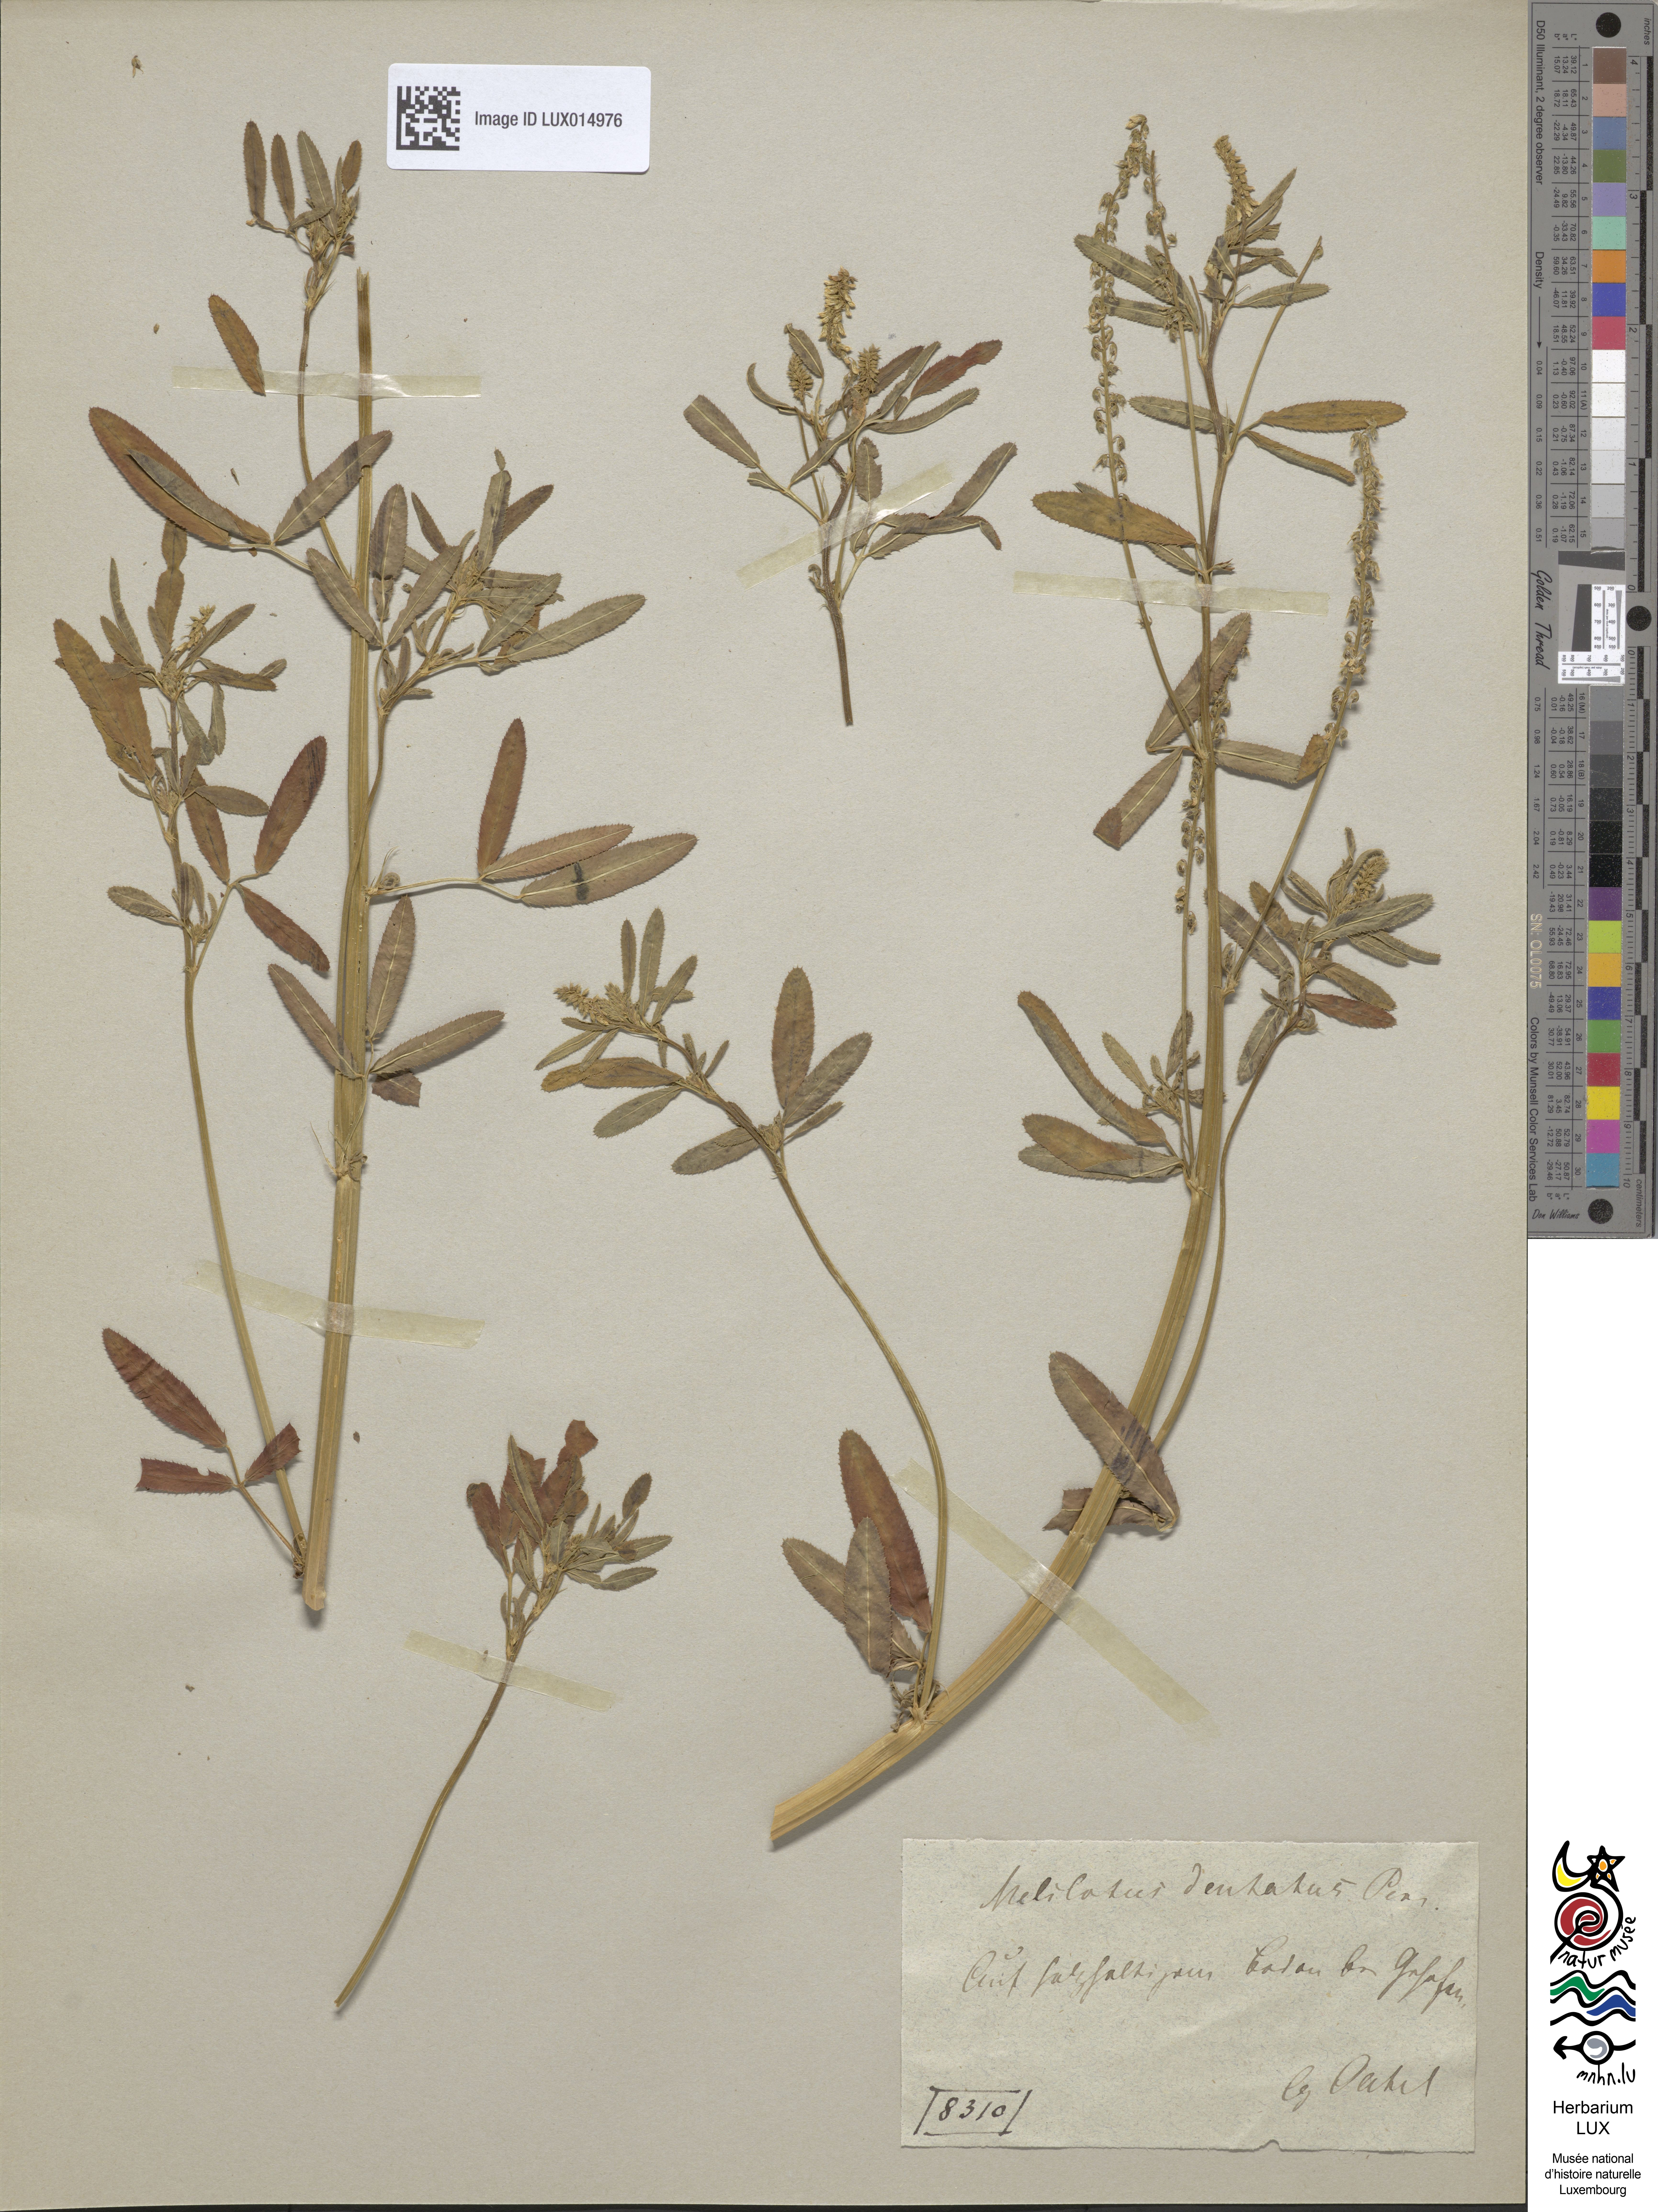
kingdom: Plantae
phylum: Tracheophyta
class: Magnoliopsida
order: Fabales
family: Fabaceae
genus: Melilotus
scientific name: Melilotus dentatus
